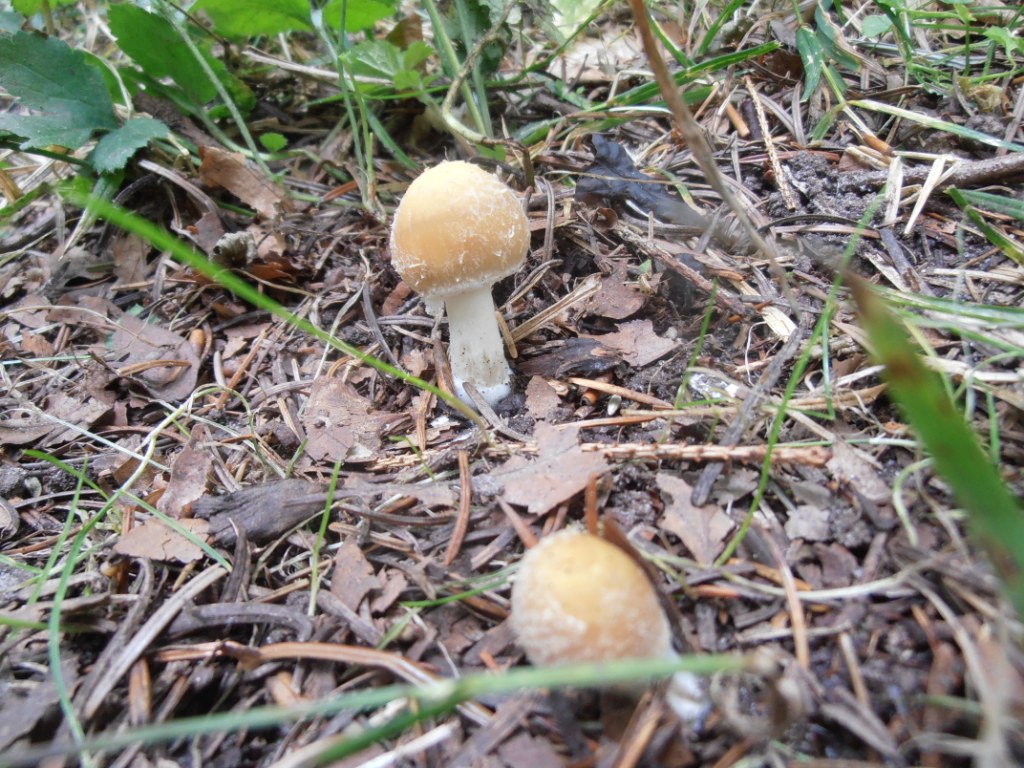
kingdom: Fungi
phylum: Basidiomycota
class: Agaricomycetes
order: Agaricales
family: Psathyrellaceae
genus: Candolleomyces
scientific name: Candolleomyces candolleanus
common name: Candolles mørkhat
